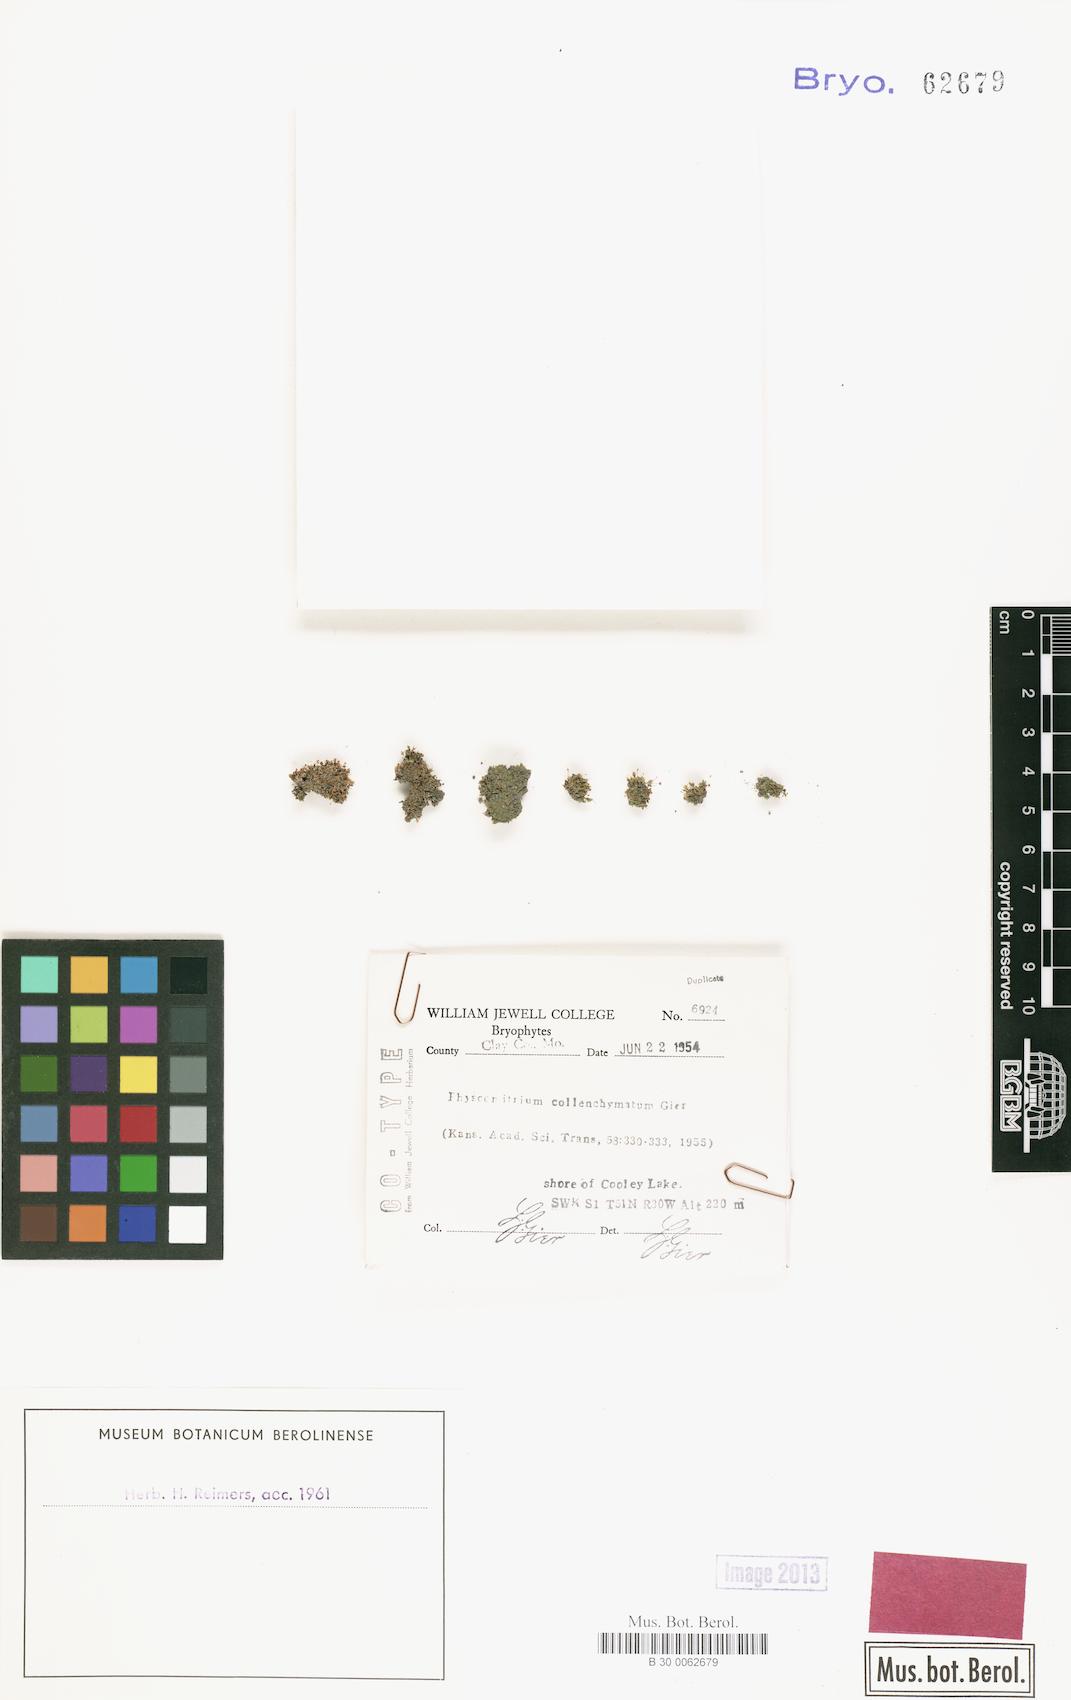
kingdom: Plantae
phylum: Bryophyta
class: Bryopsida
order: Funariales
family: Funariaceae
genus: Physcomitrium
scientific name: Physcomitrium collenchymatum
